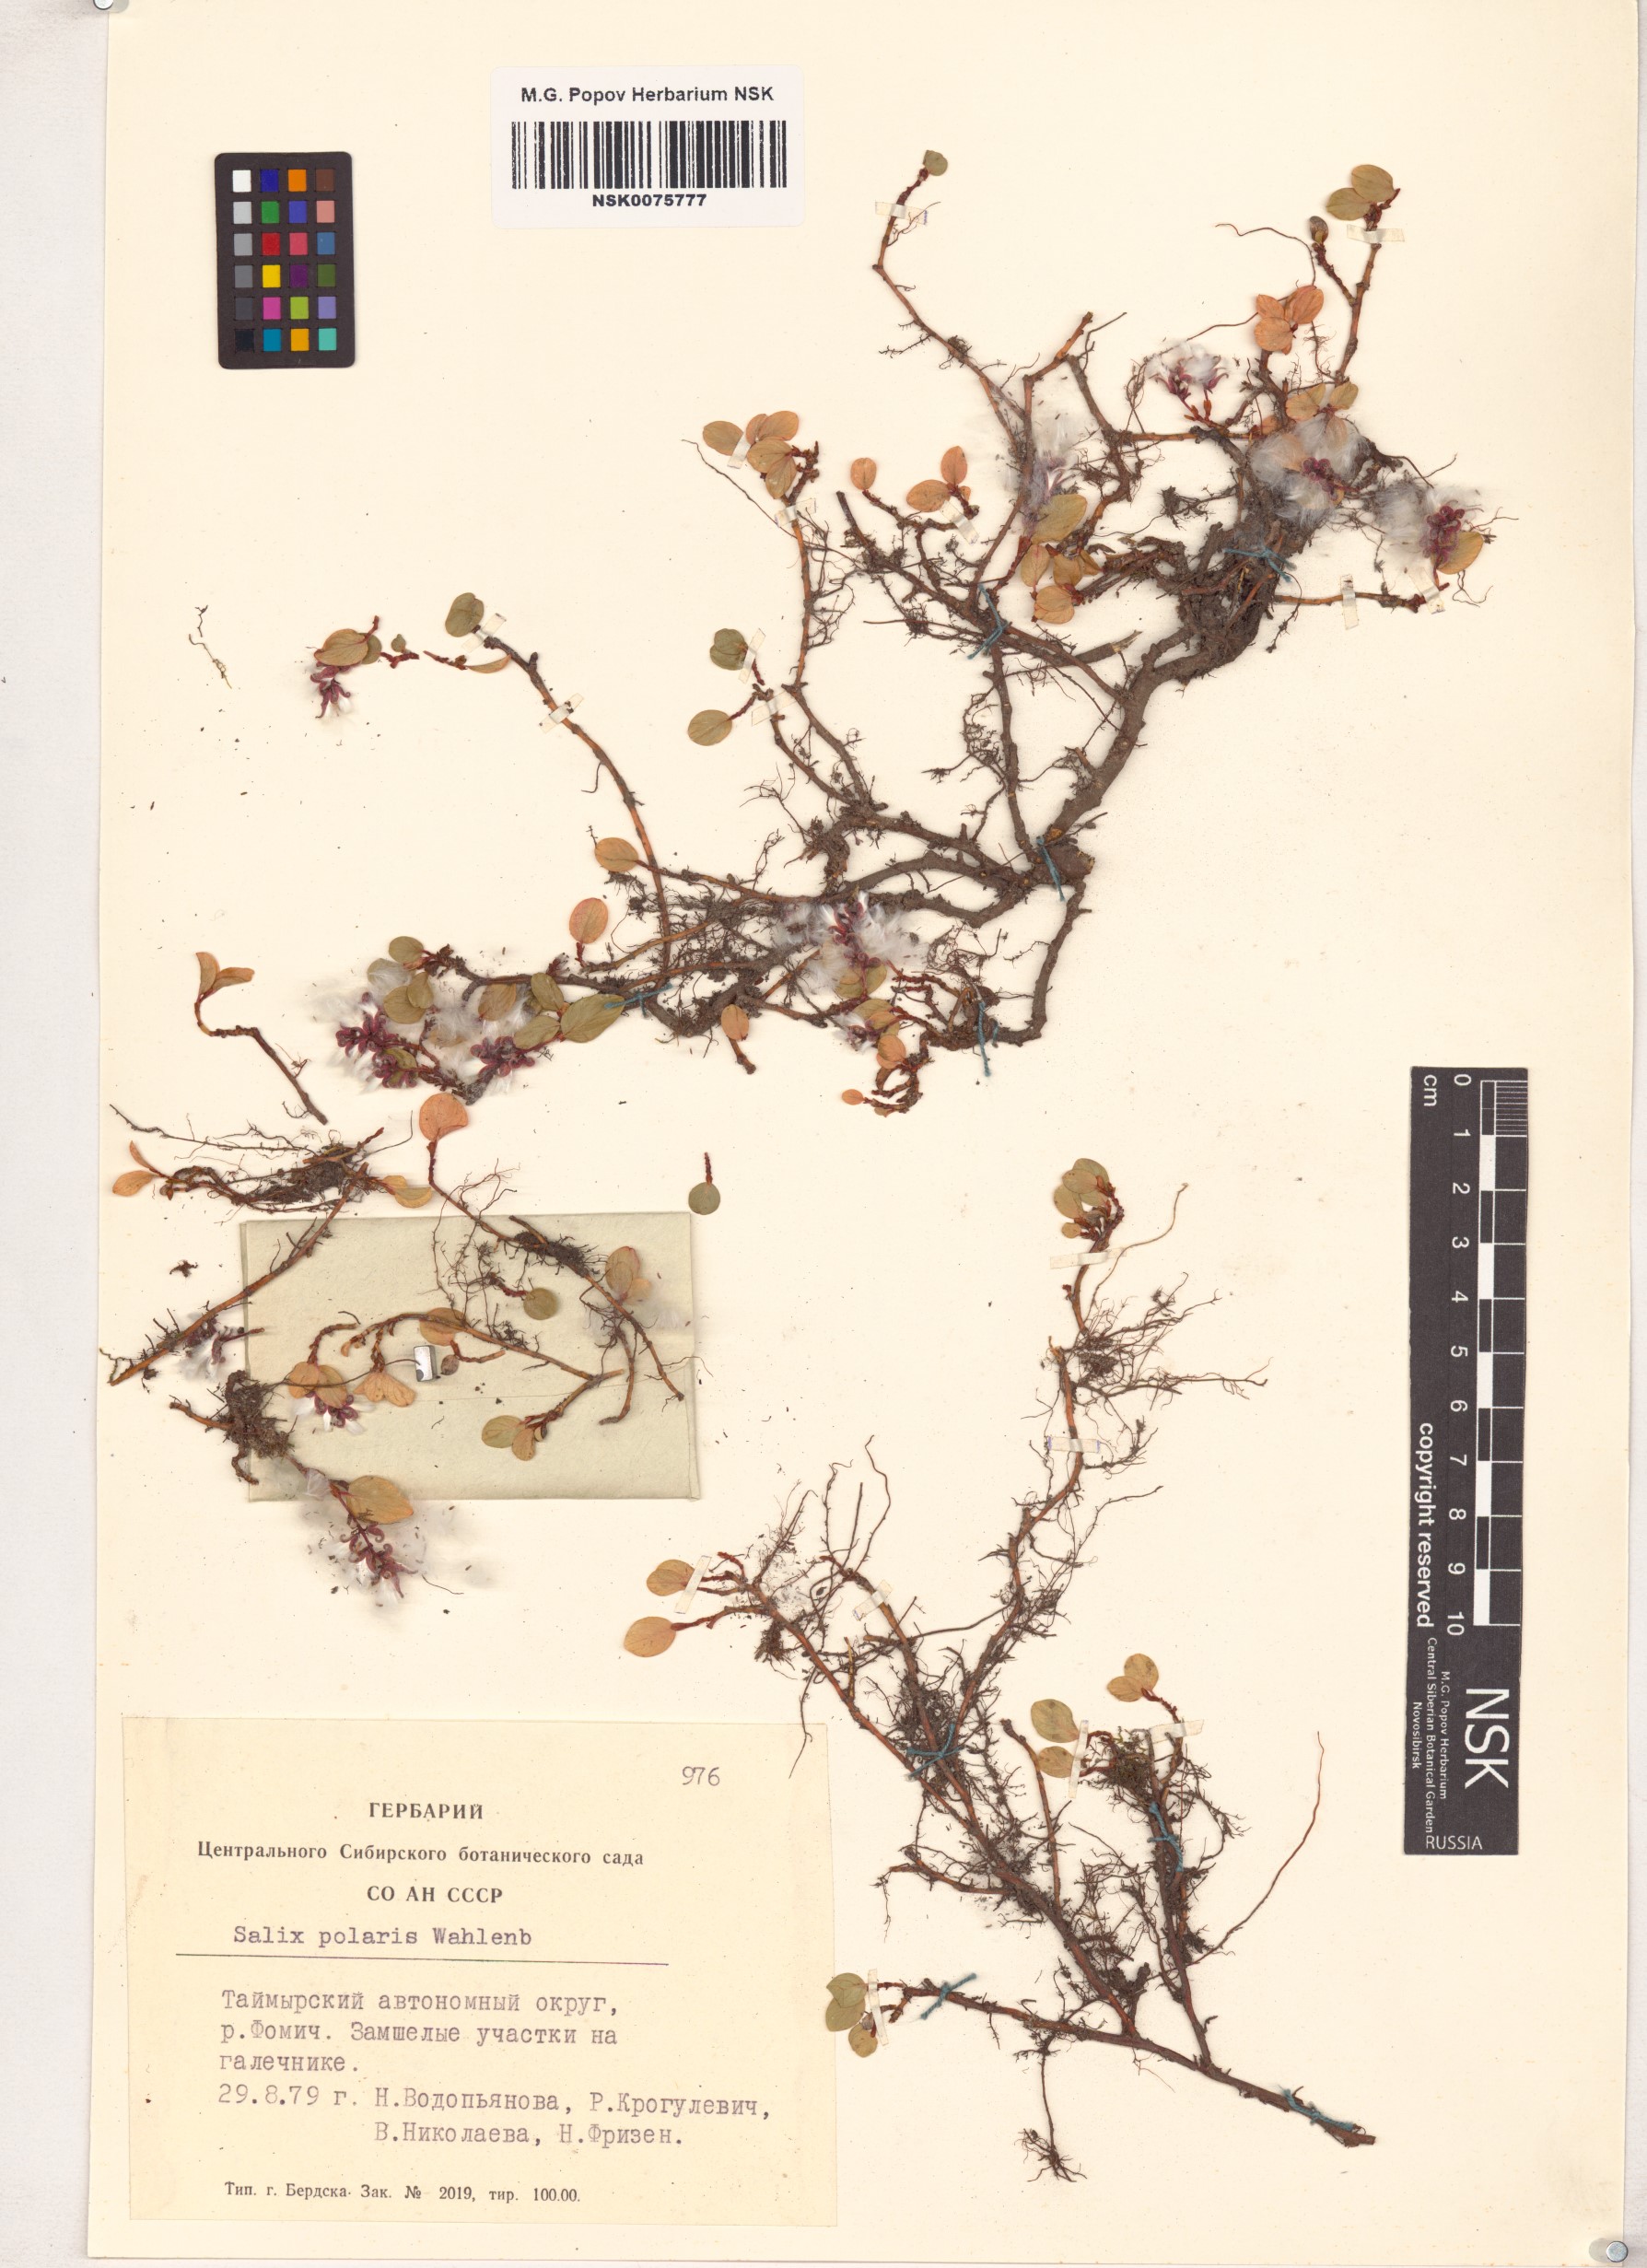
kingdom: Plantae
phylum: Tracheophyta
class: Magnoliopsida
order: Malpighiales
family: Salicaceae
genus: Salix
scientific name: Salix polaris
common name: Polar willow
